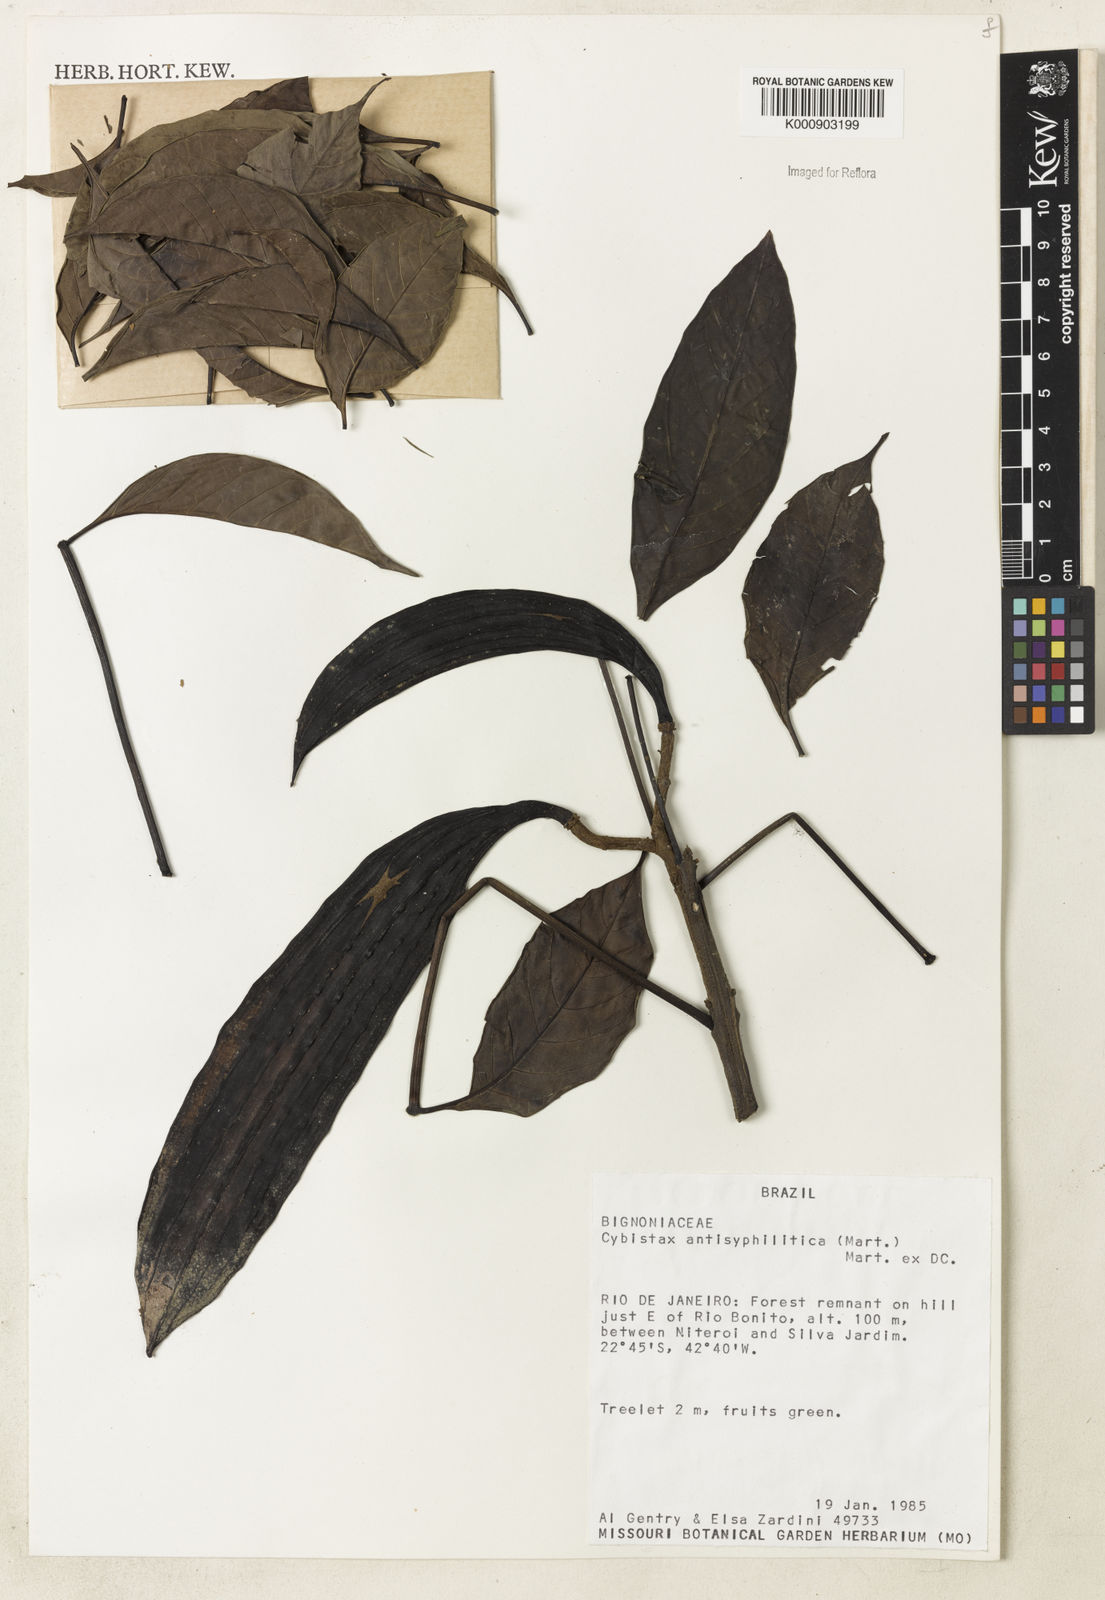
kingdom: Plantae
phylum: Tracheophyta
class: Magnoliopsida
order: Lamiales
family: Bignoniaceae
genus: Cybistax
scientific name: Cybistax antisyphilitica
